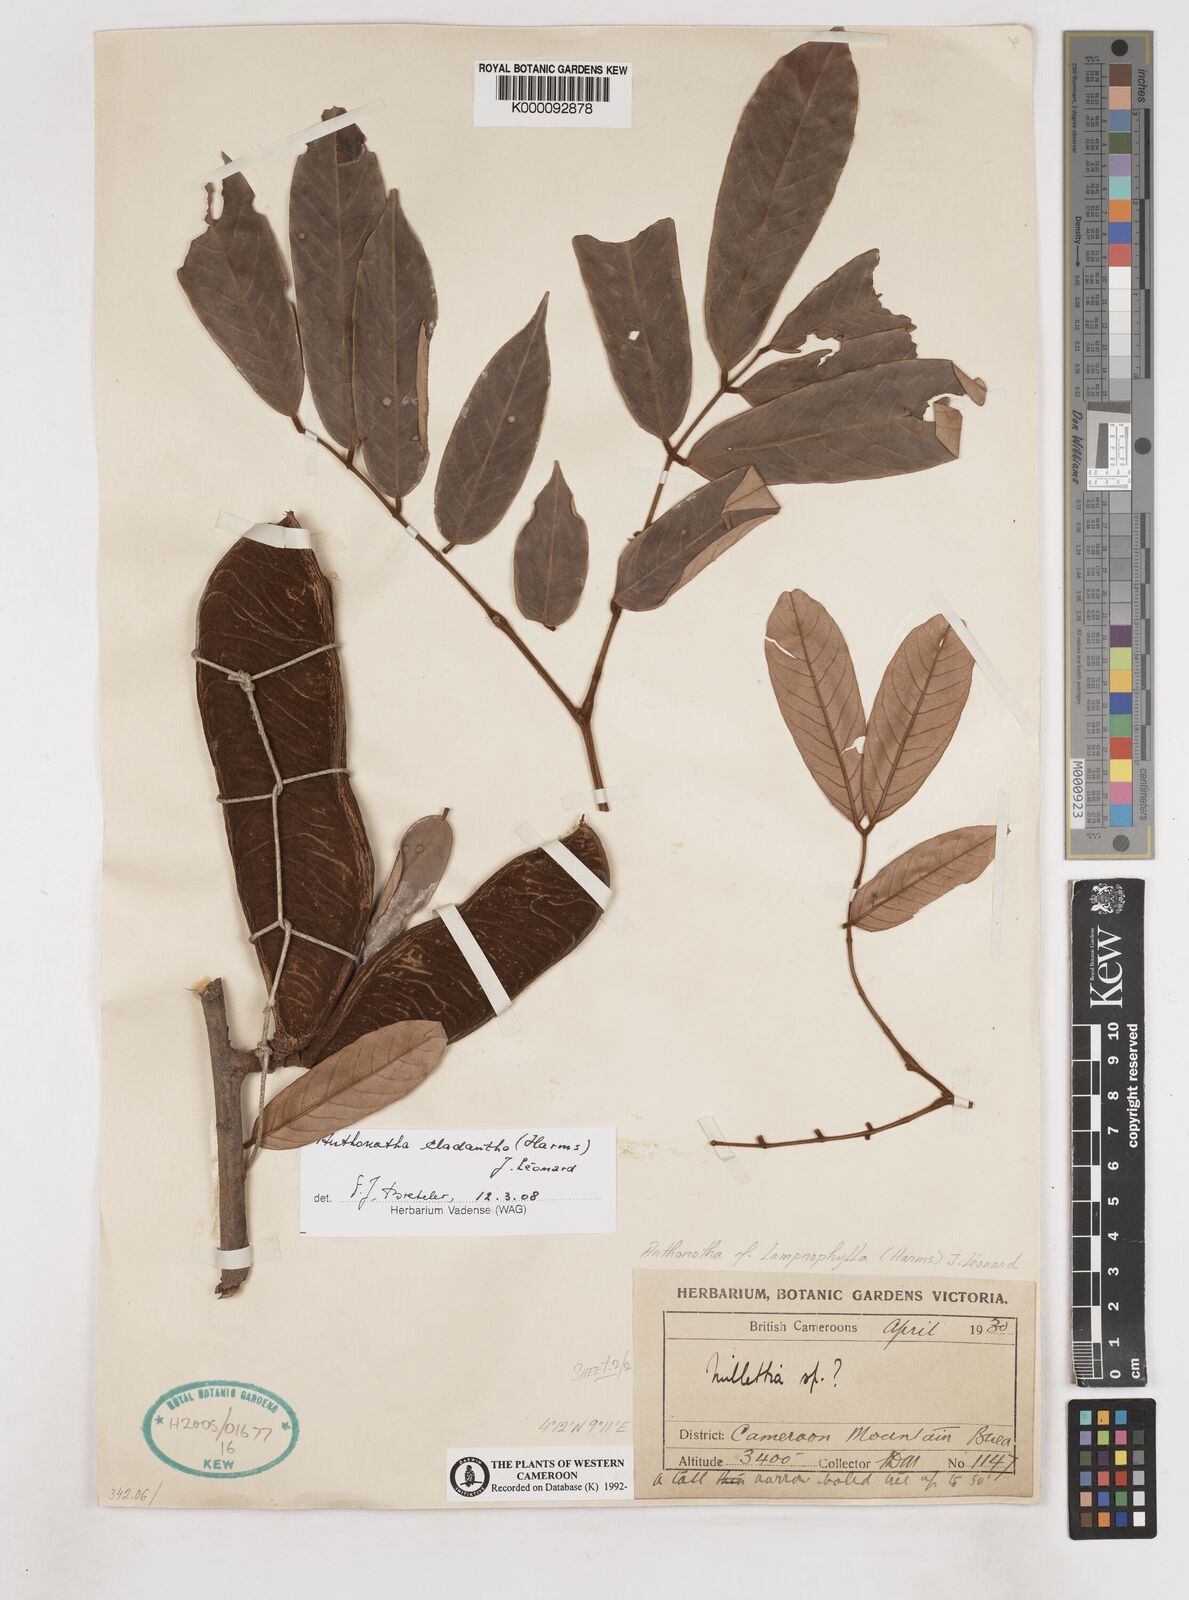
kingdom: Plantae
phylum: Tracheophyta
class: Magnoliopsida
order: Fabales
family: Fabaceae
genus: Anthonotha
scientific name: Anthonotha
